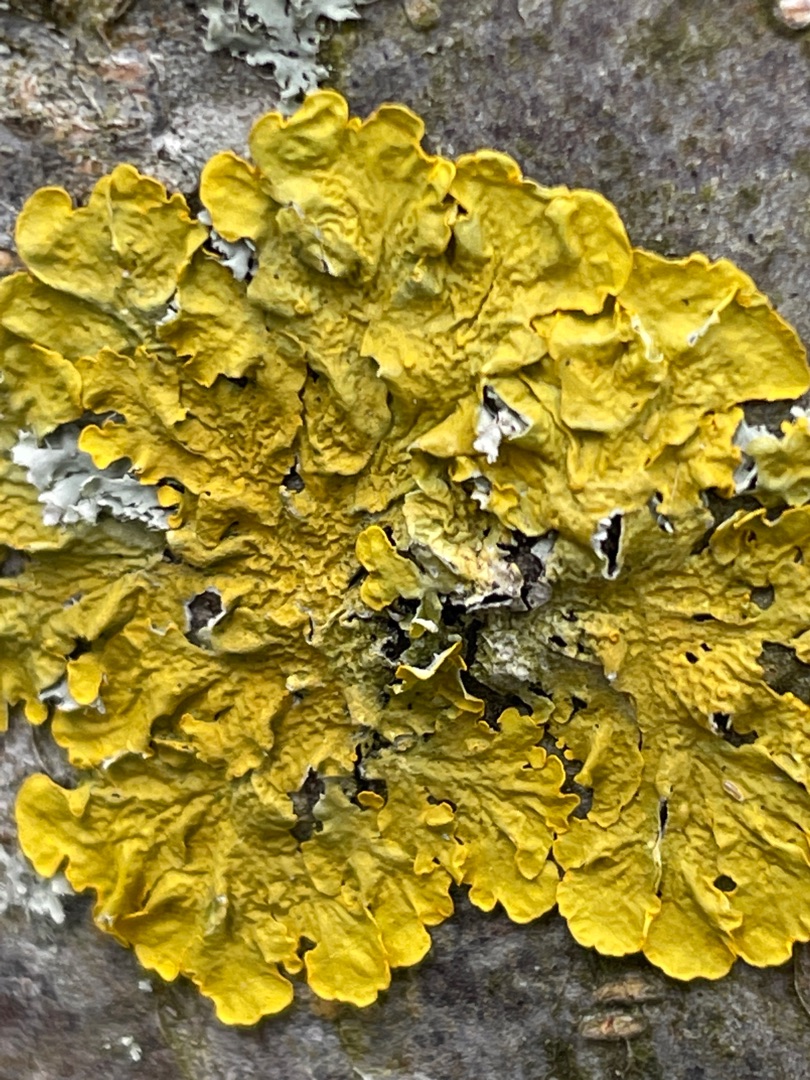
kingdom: Fungi
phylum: Ascomycota
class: Lecanoromycetes
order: Teloschistales
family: Teloschistaceae
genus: Xanthoria
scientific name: Xanthoria parietina
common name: Almindelig væggelav
